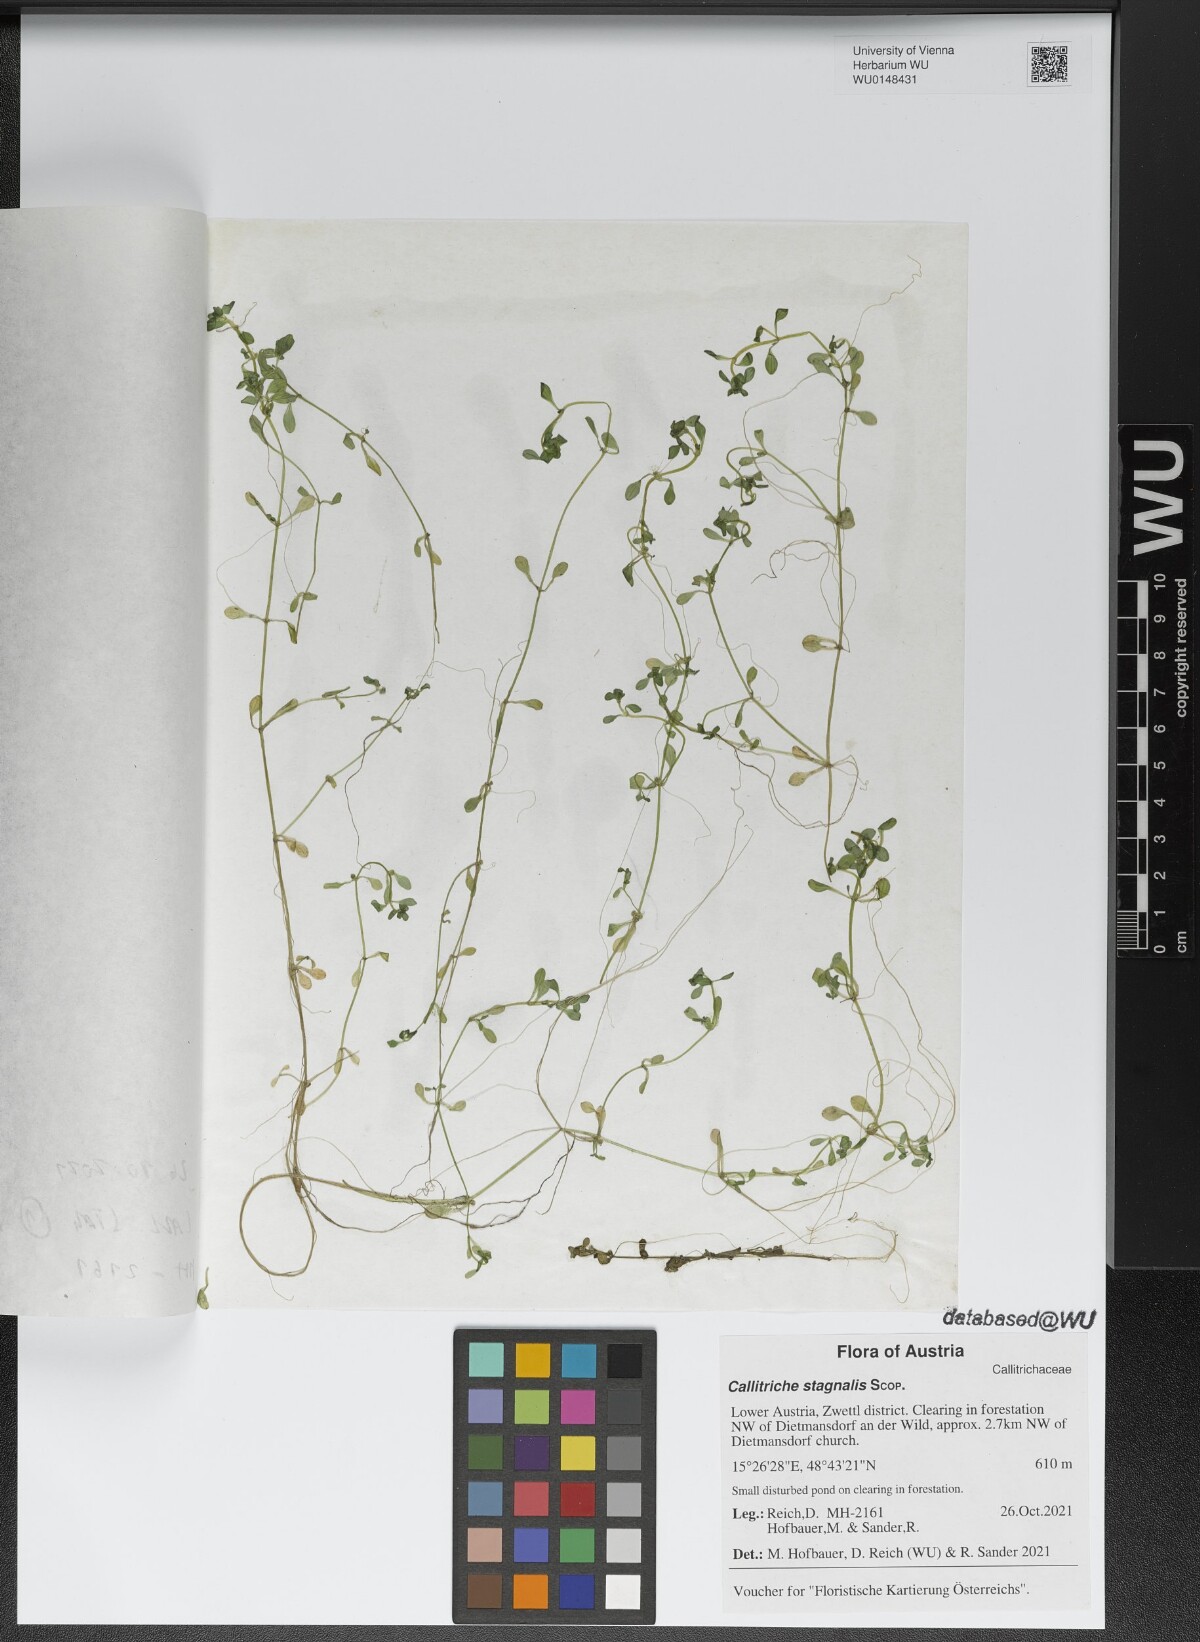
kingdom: Plantae
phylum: Tracheophyta
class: Magnoliopsida
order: Lamiales
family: Plantaginaceae
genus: Callitriche
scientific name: Callitriche stagnalis
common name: Common water-starwort
